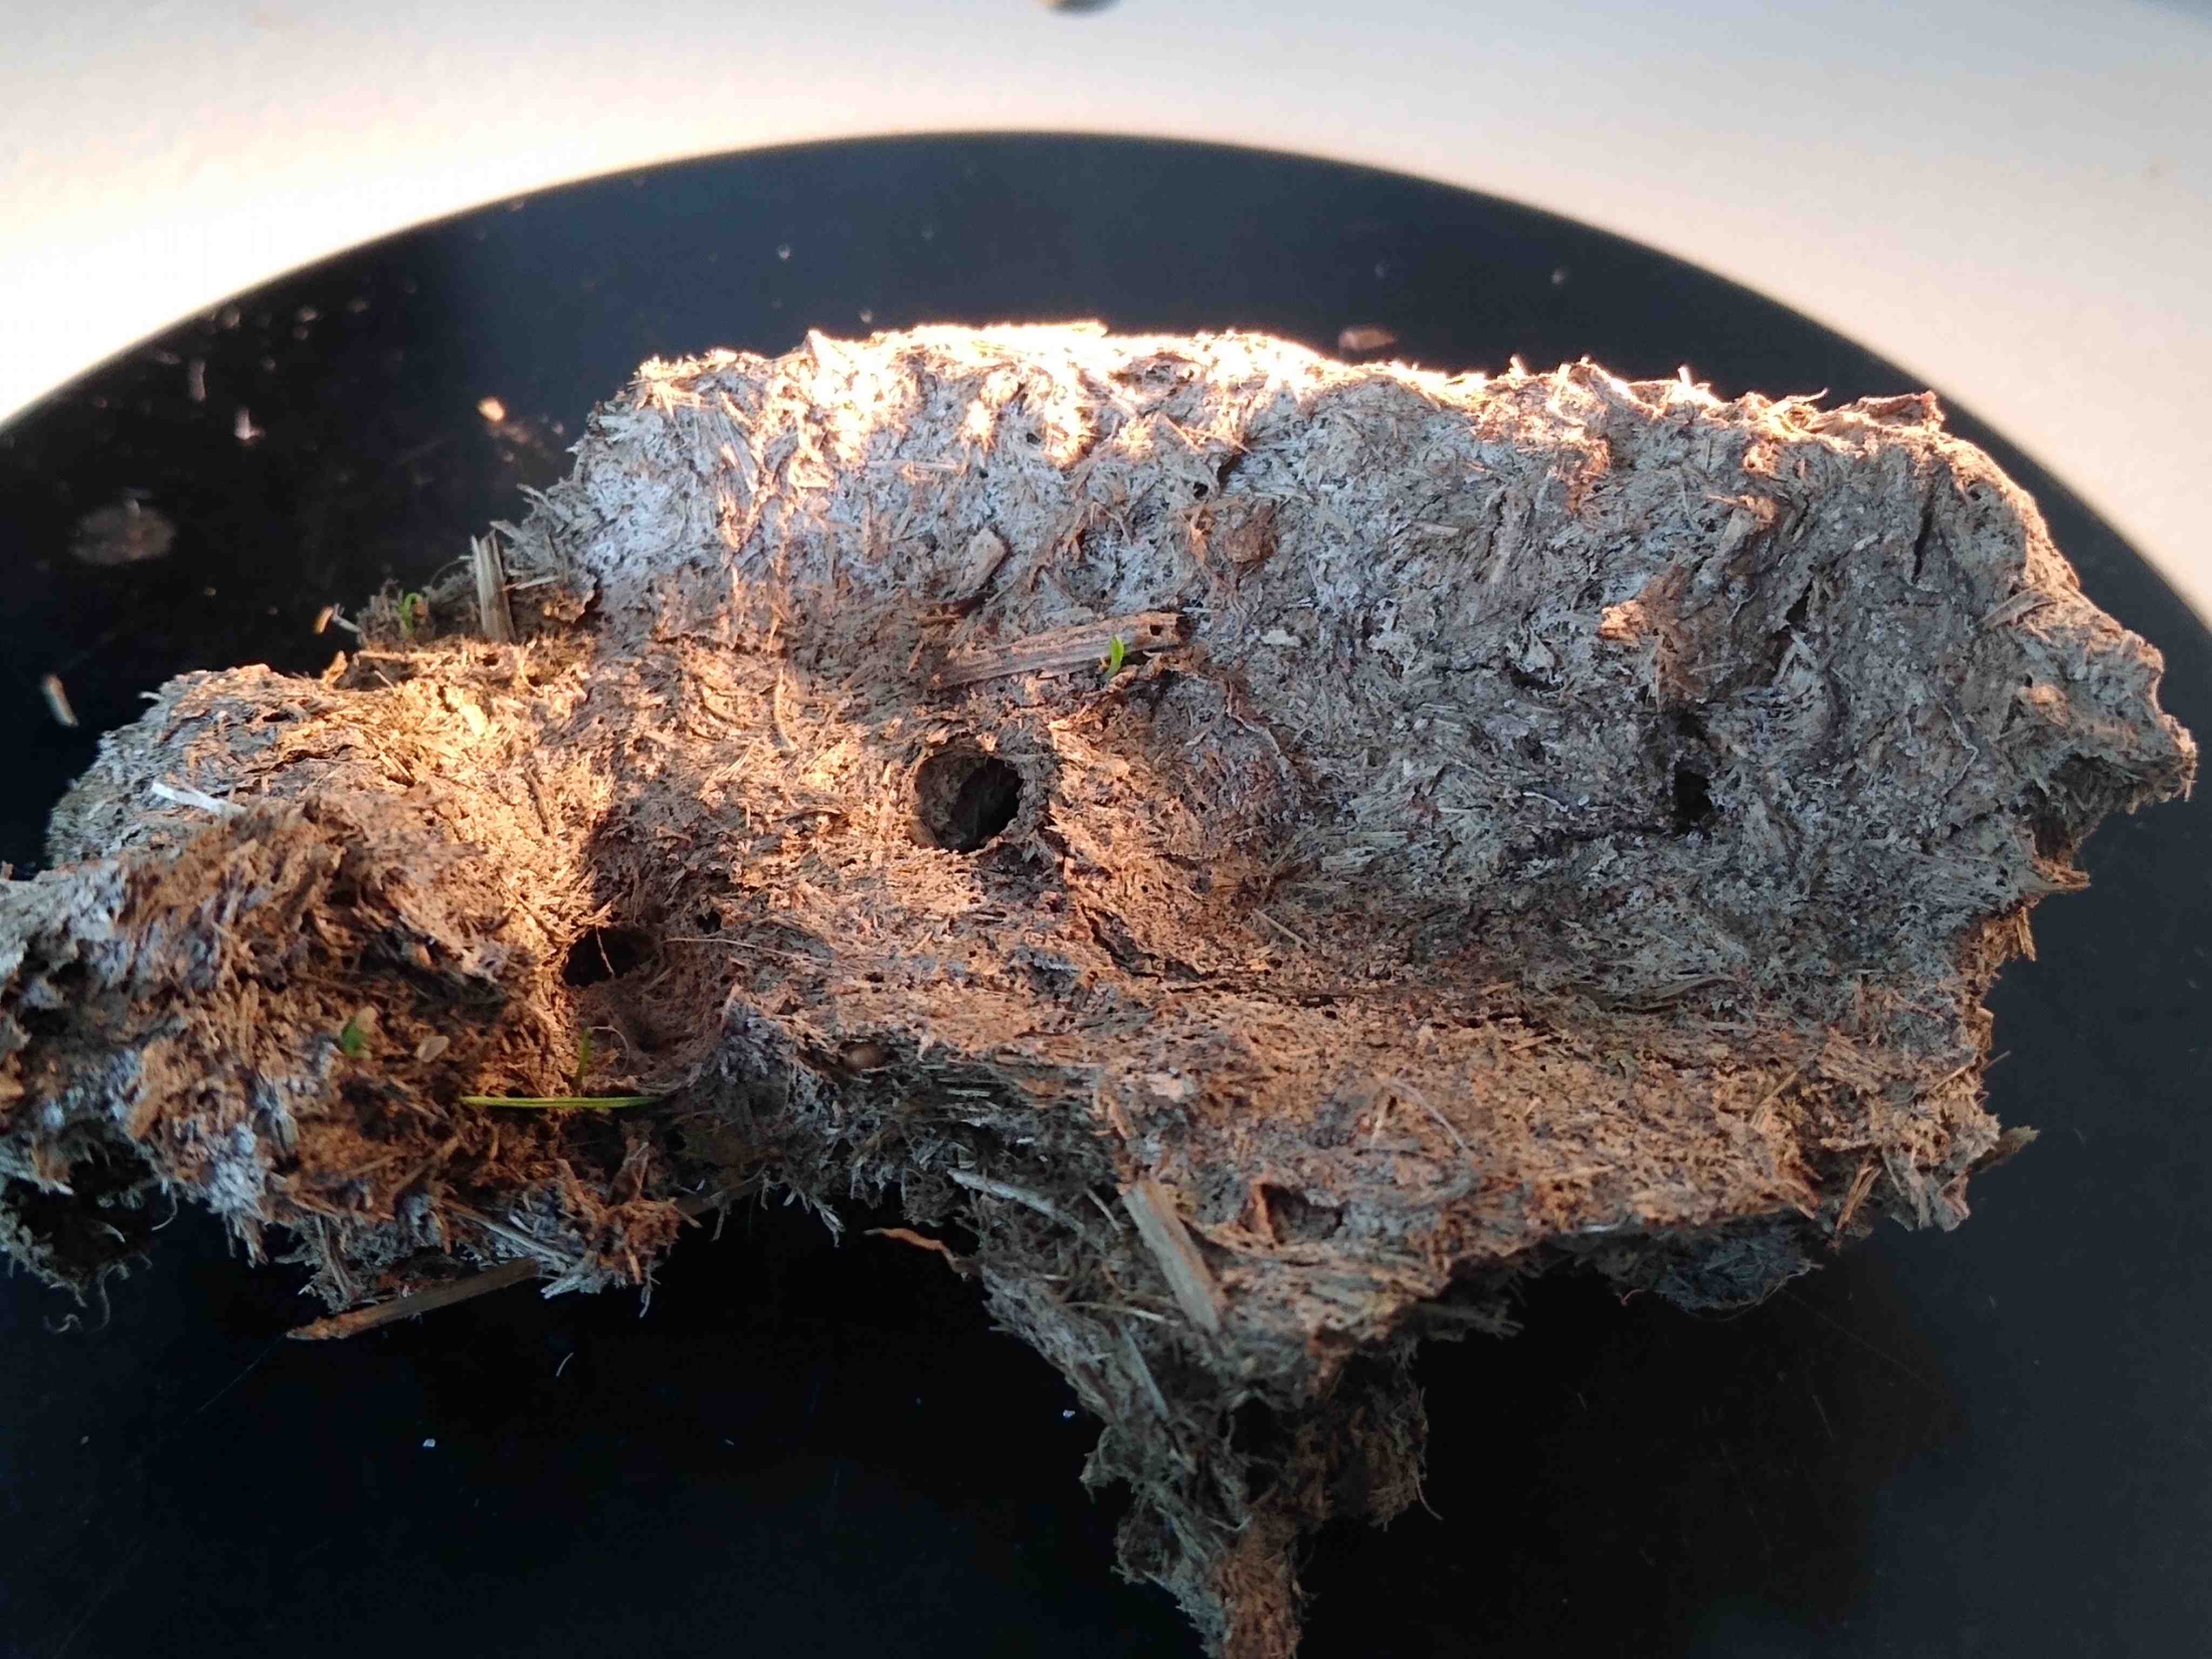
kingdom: Fungi
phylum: Ascomycota
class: Dothideomycetes
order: Pleosporales
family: Sporormiaceae
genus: Sporormiella
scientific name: Sporormiella
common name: knækspore
